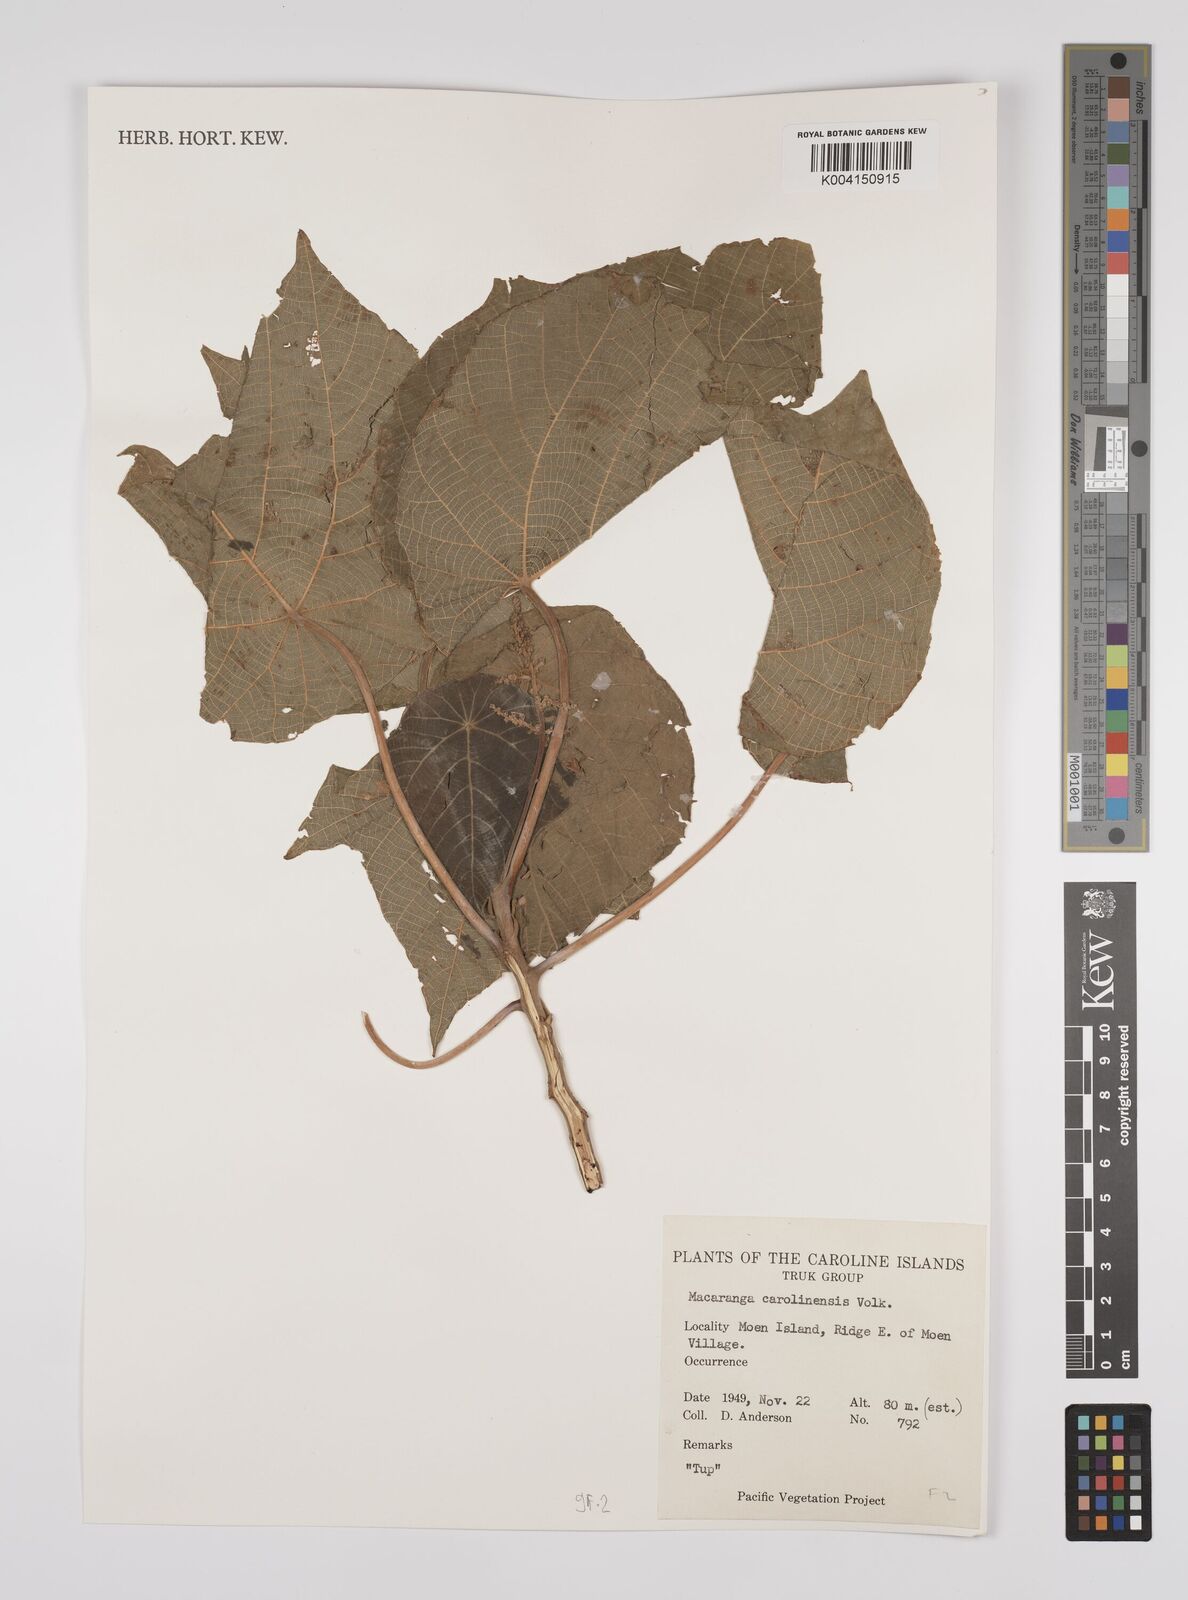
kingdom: Plantae
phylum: Tracheophyta
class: Magnoliopsida
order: Malpighiales
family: Euphorbiaceae
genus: Macaranga
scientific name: Macaranga carolinensis
